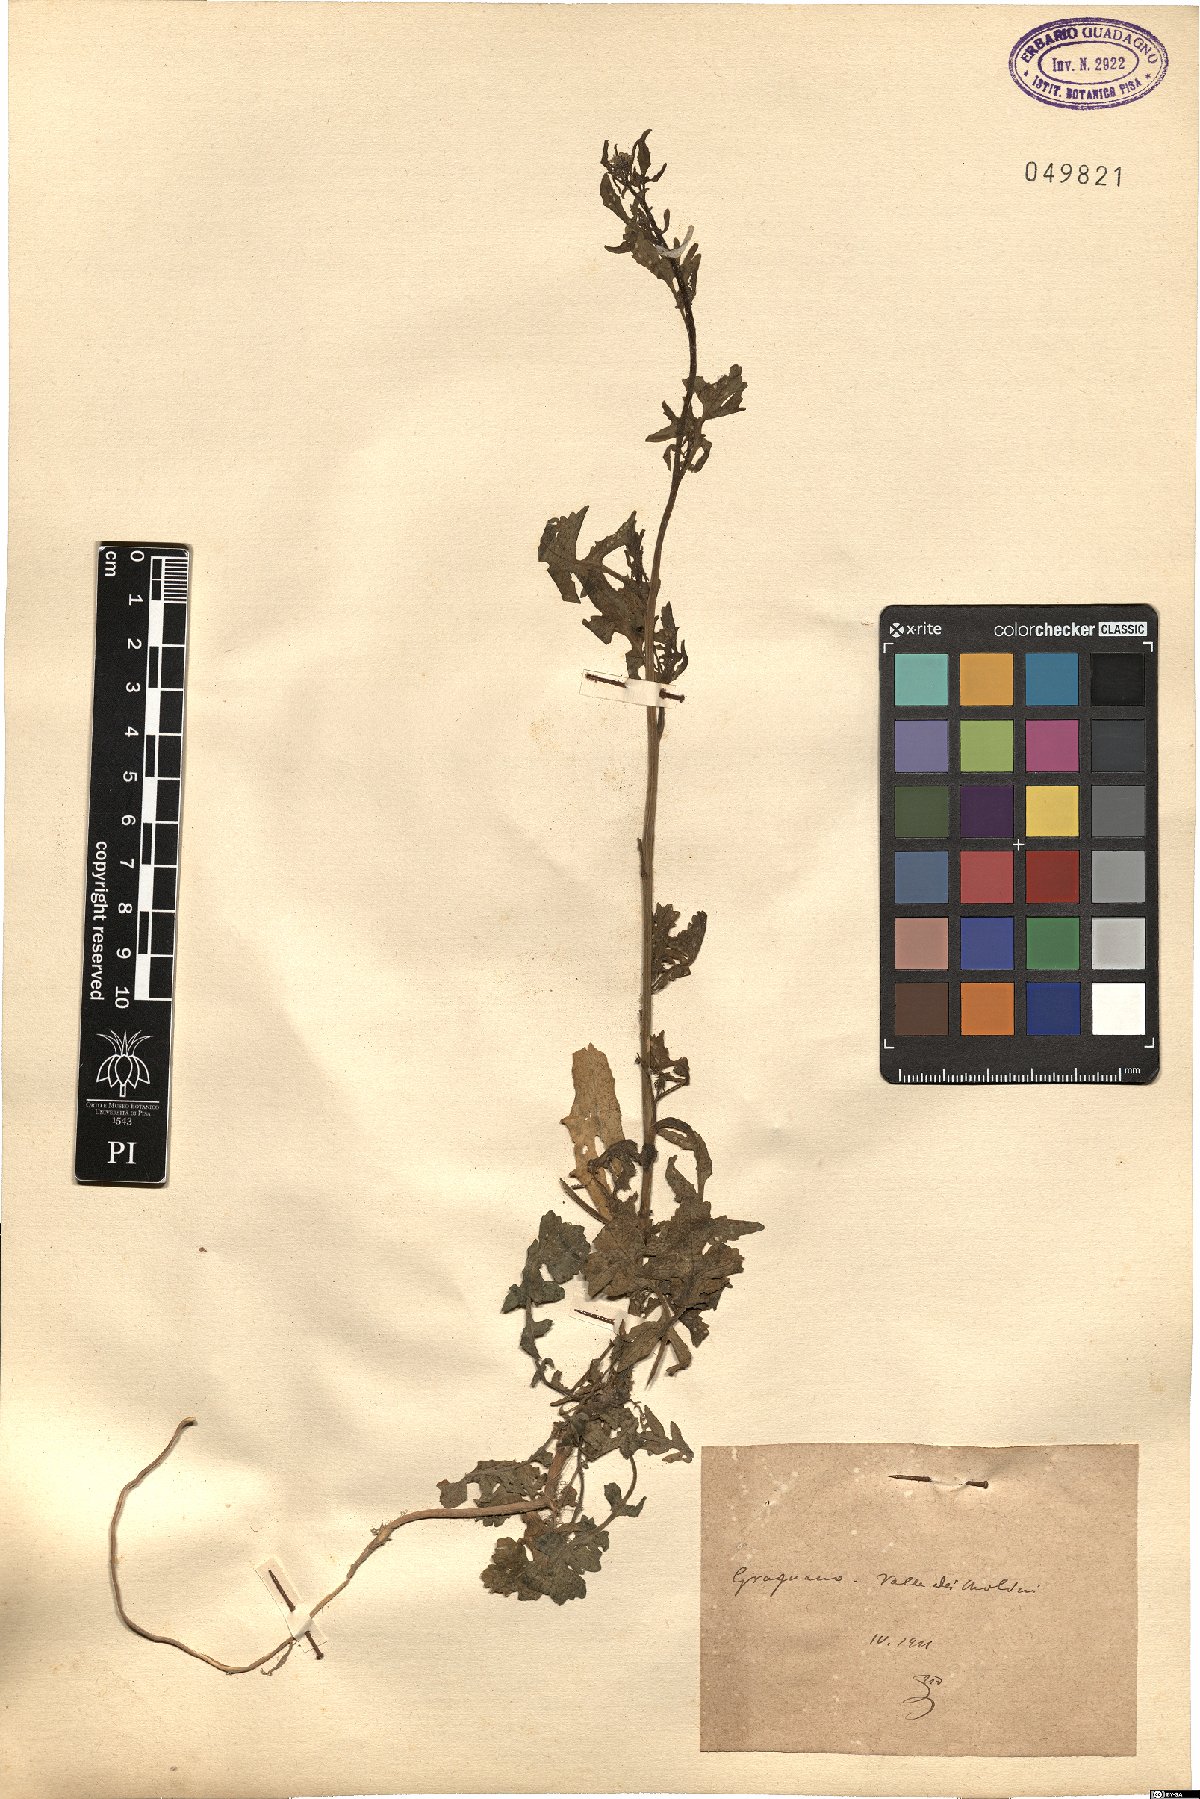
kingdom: Plantae
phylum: Tracheophyta
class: Magnoliopsida
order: Brassicales
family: Brassicaceae
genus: Sisymbrium
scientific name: Sisymbrium
